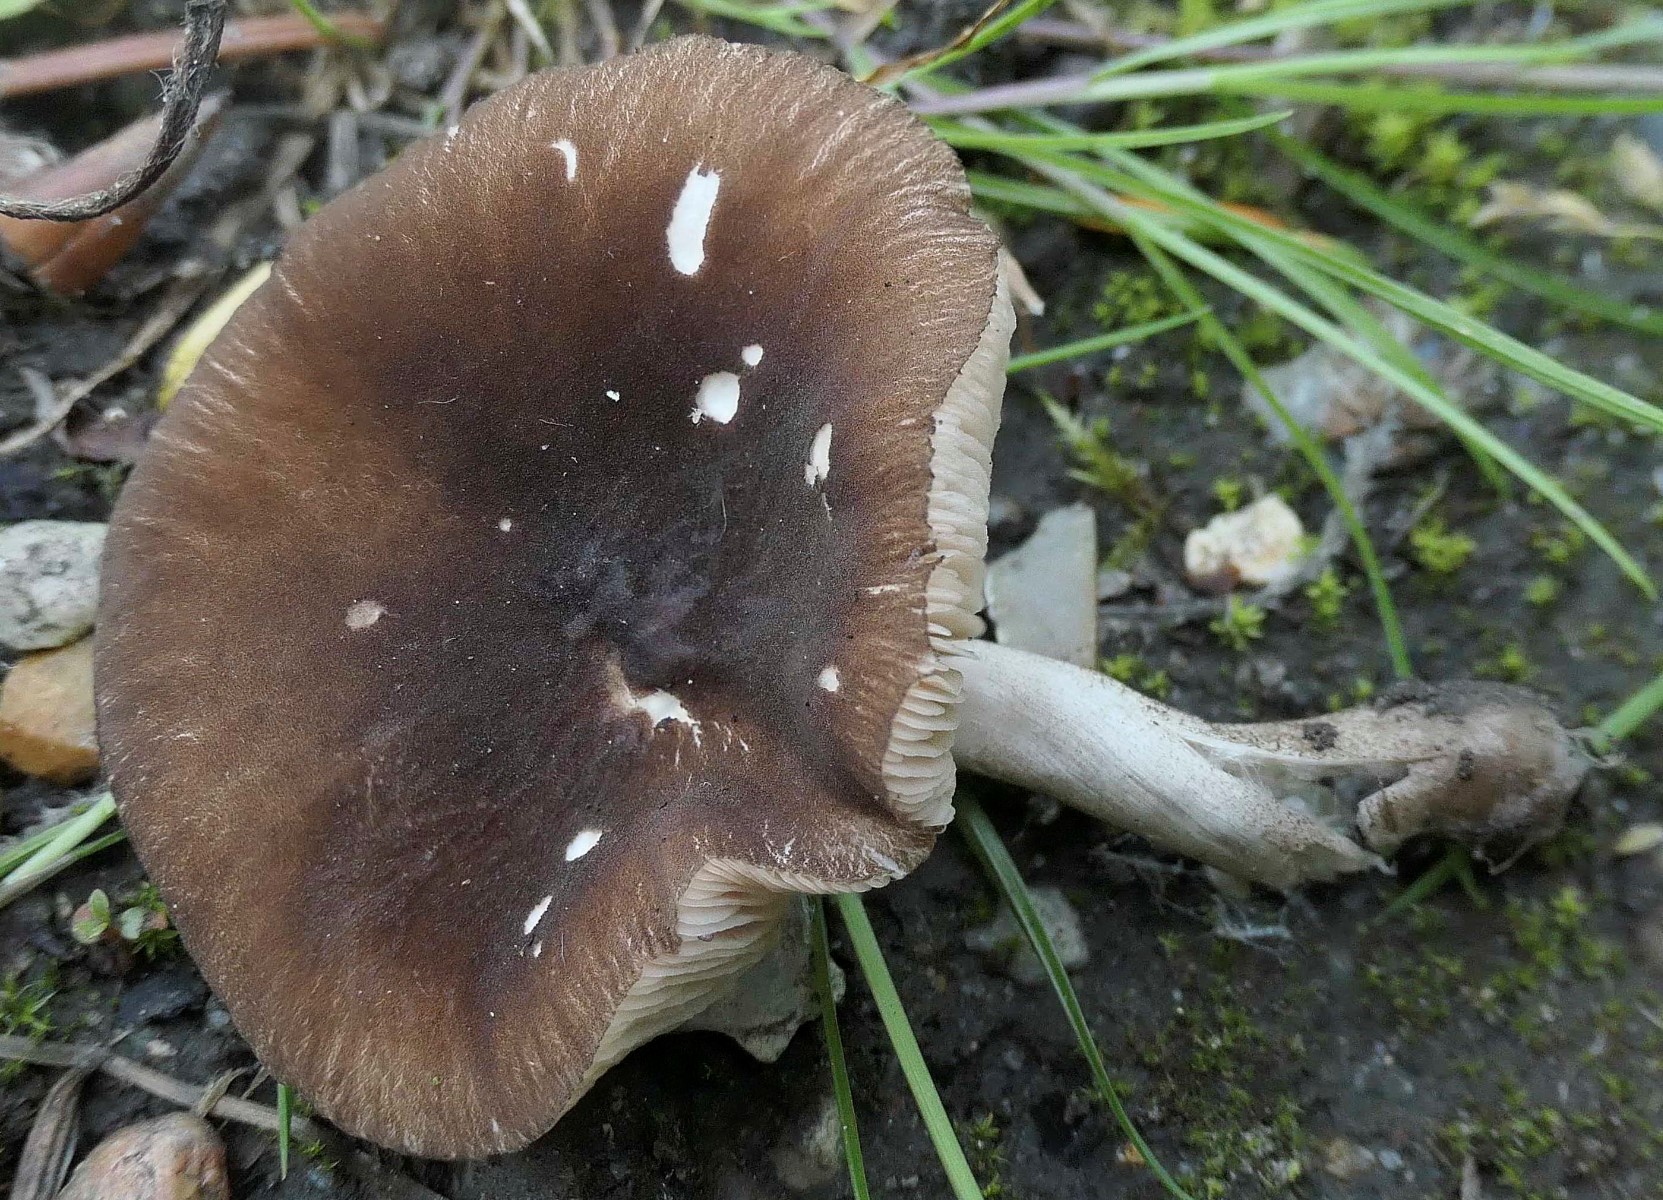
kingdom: Fungi
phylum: Basidiomycota
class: Agaricomycetes
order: Agaricales
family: Pluteaceae
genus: Pluteus
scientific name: Pluteus podospileus
